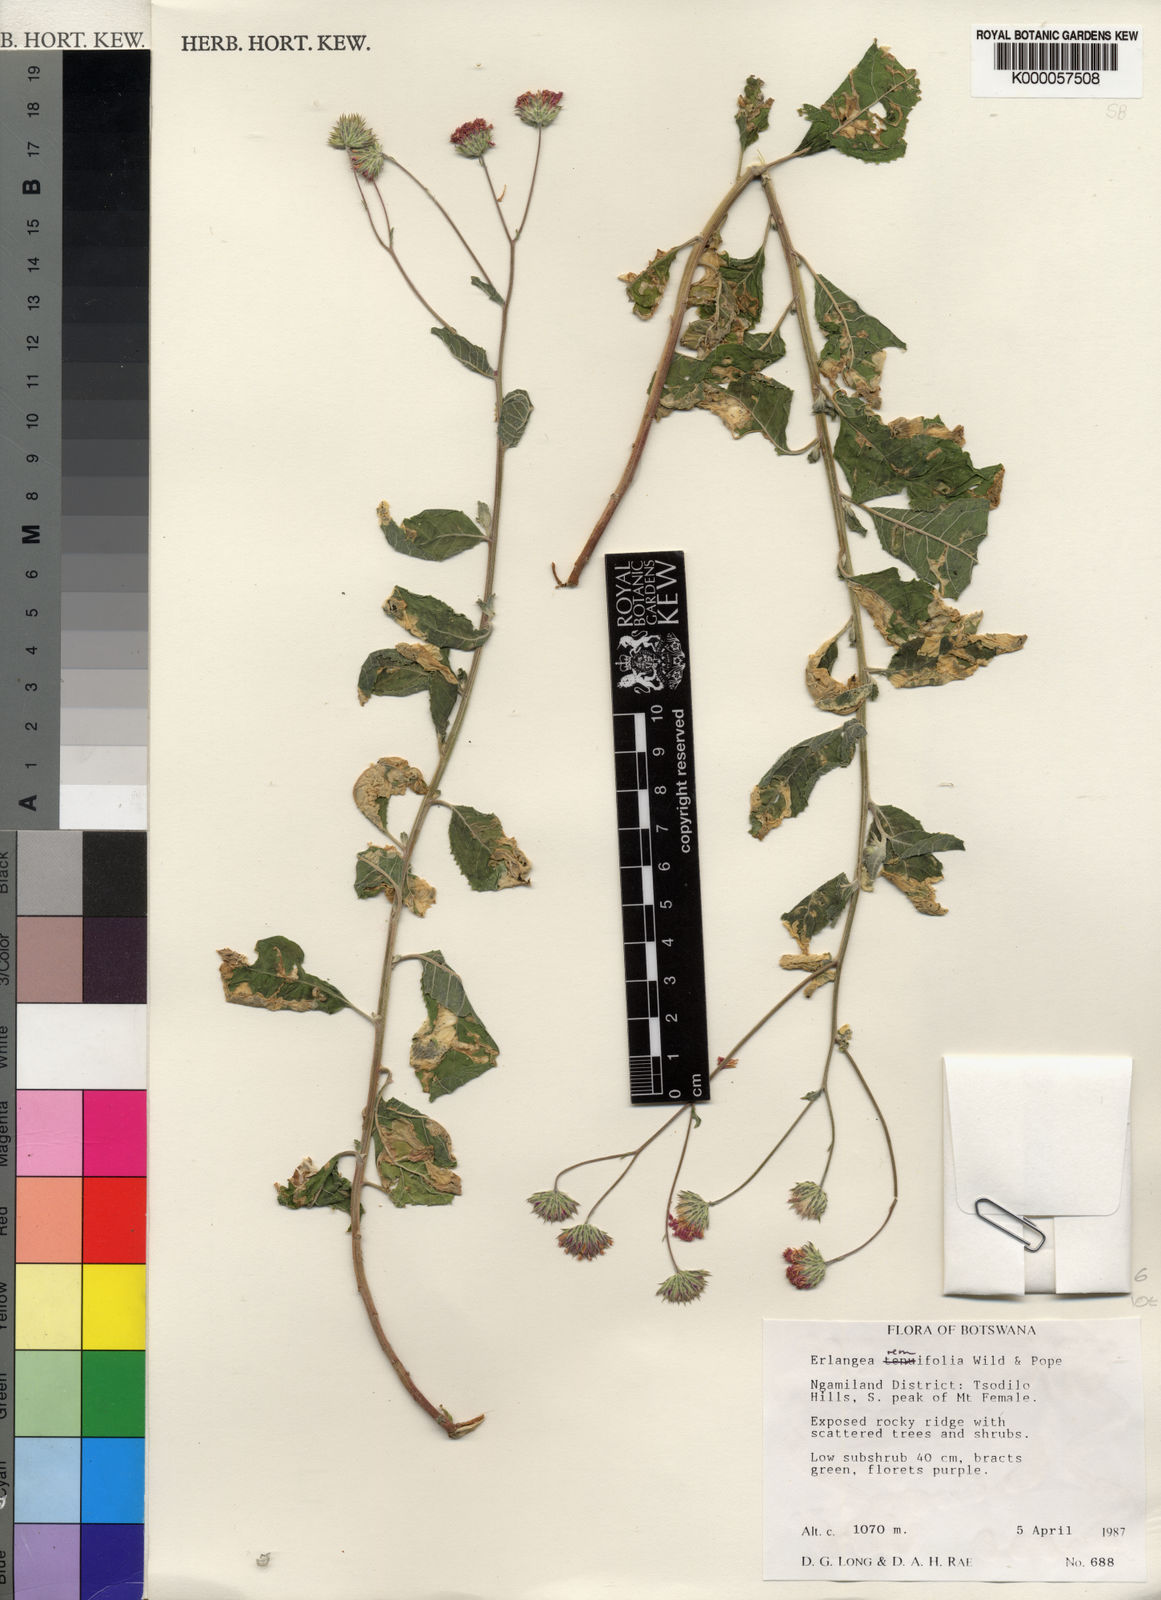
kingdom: Plantae
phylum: Tracheophyta
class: Magnoliopsida
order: Asterales
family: Asteraceae
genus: Erlangea
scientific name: Erlangea remifolia
